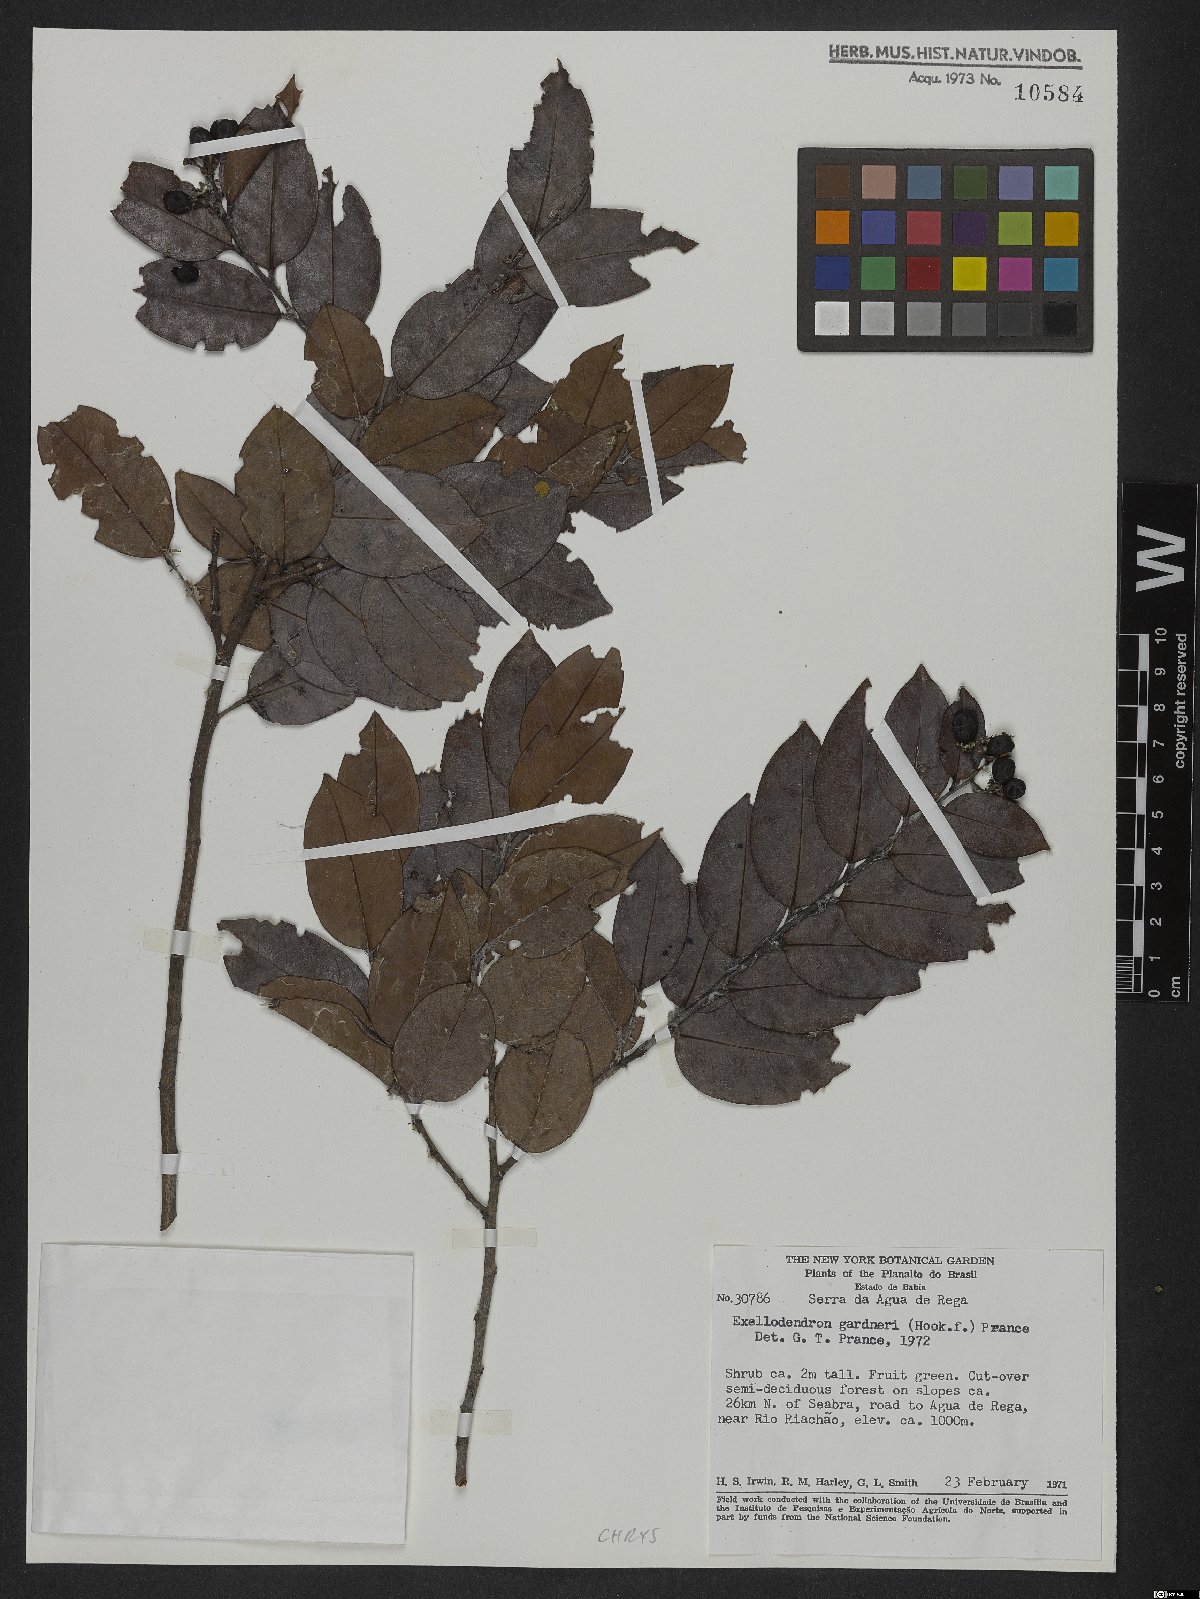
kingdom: Plantae
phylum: Tracheophyta
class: Magnoliopsida
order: Malpighiales
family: Chrysobalanaceae
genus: Exellodendron
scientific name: Exellodendron gardneri
